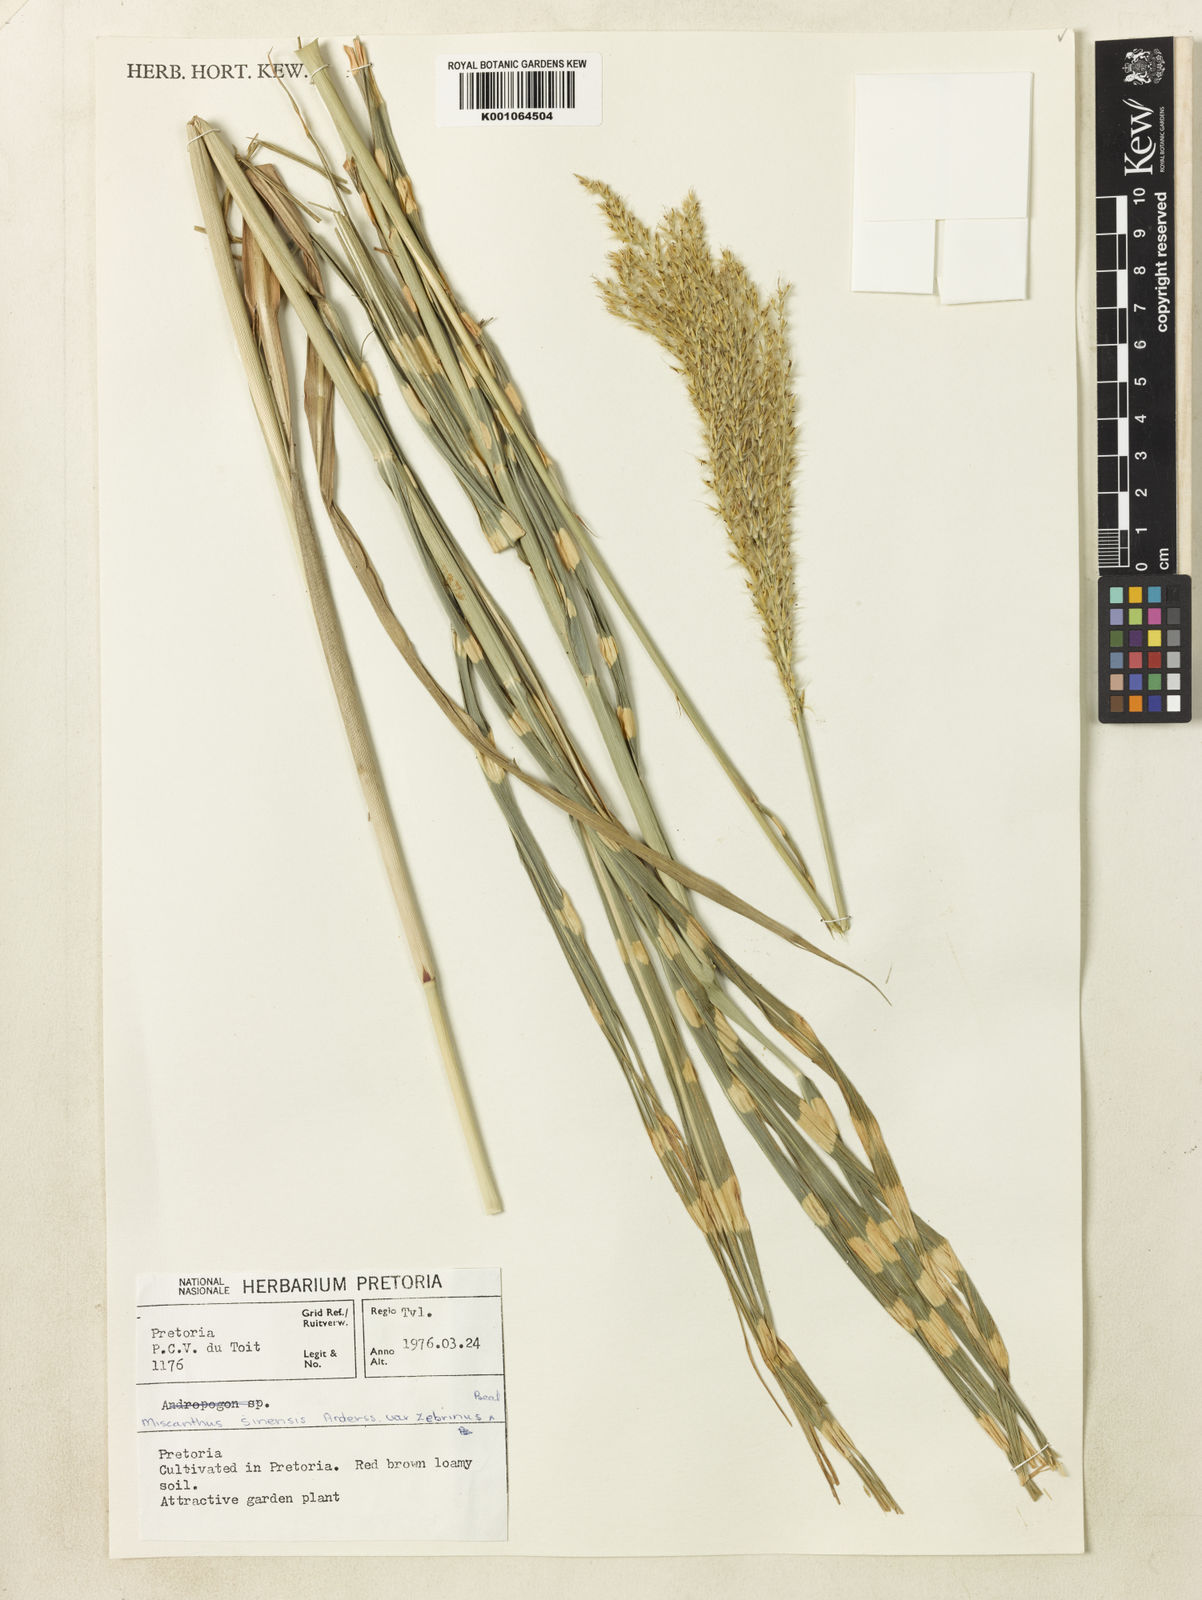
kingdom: Plantae
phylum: Tracheophyta
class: Liliopsida
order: Poales
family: Poaceae
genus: Miscanthus
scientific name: Miscanthus sinensis
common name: Chinese silvergrass
